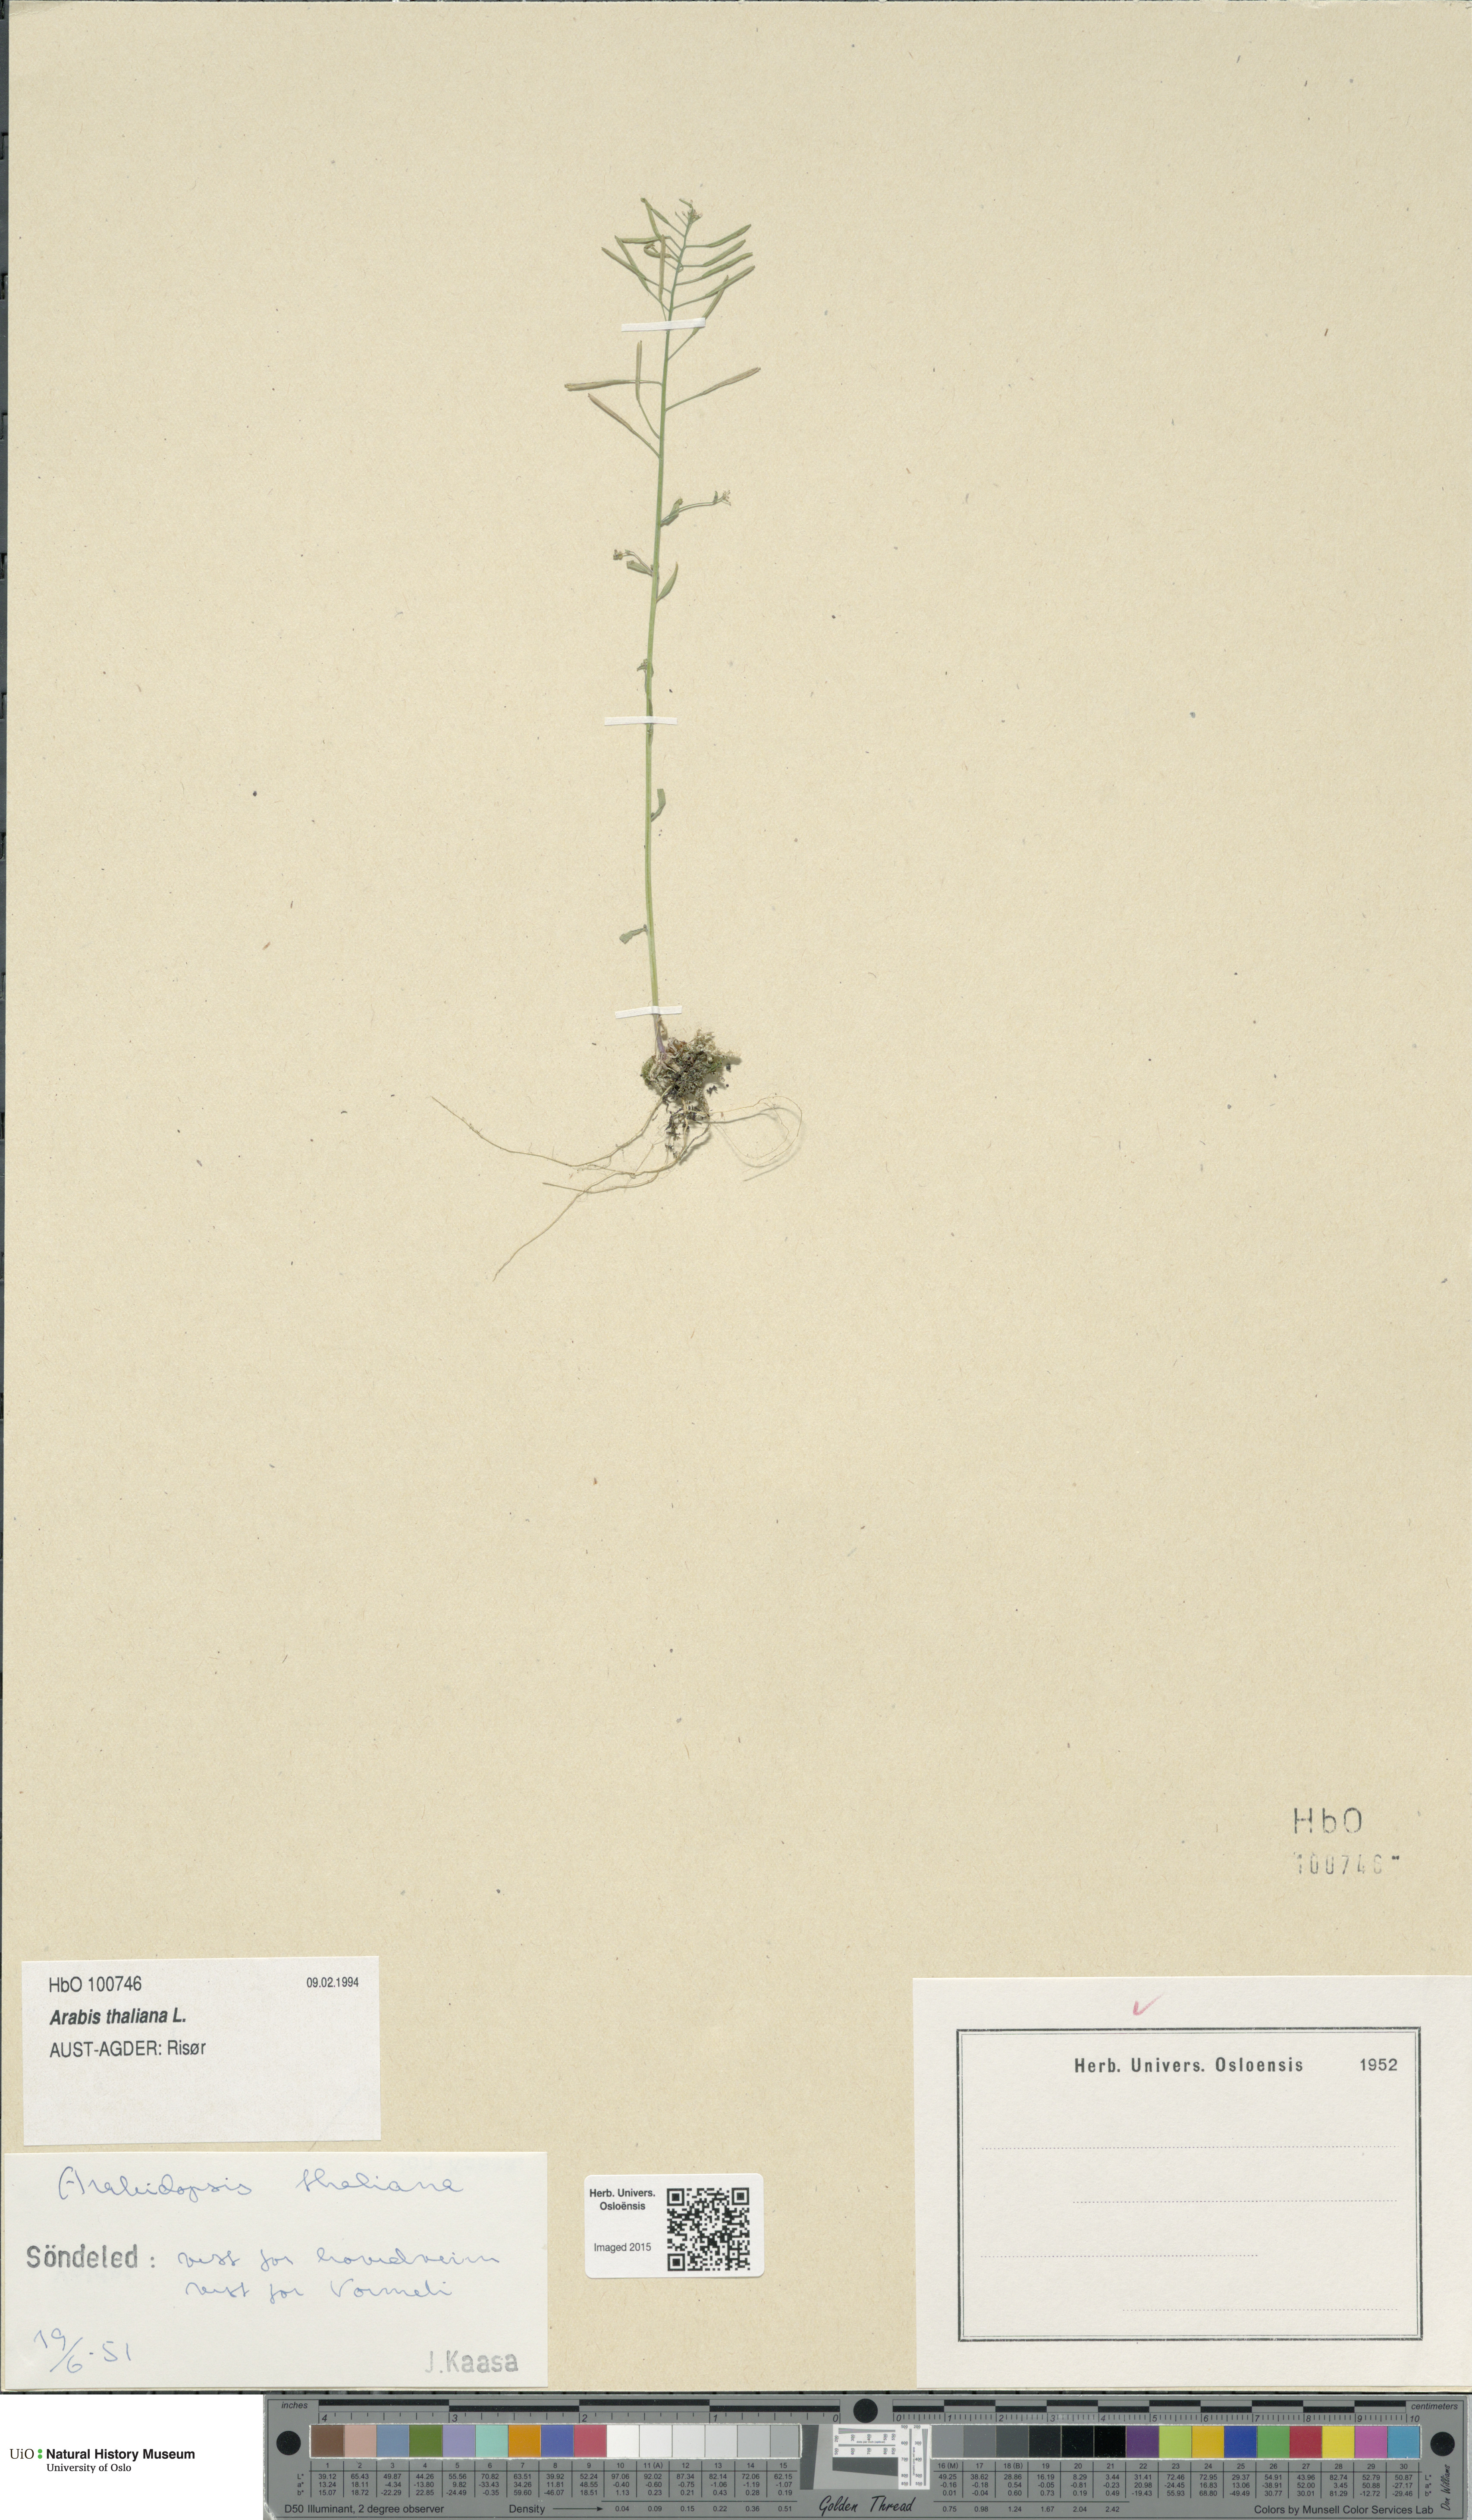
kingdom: Plantae
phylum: Tracheophyta
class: Magnoliopsida
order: Brassicales
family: Brassicaceae
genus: Arabidopsis
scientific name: Arabidopsis thaliana
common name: Thale cress
